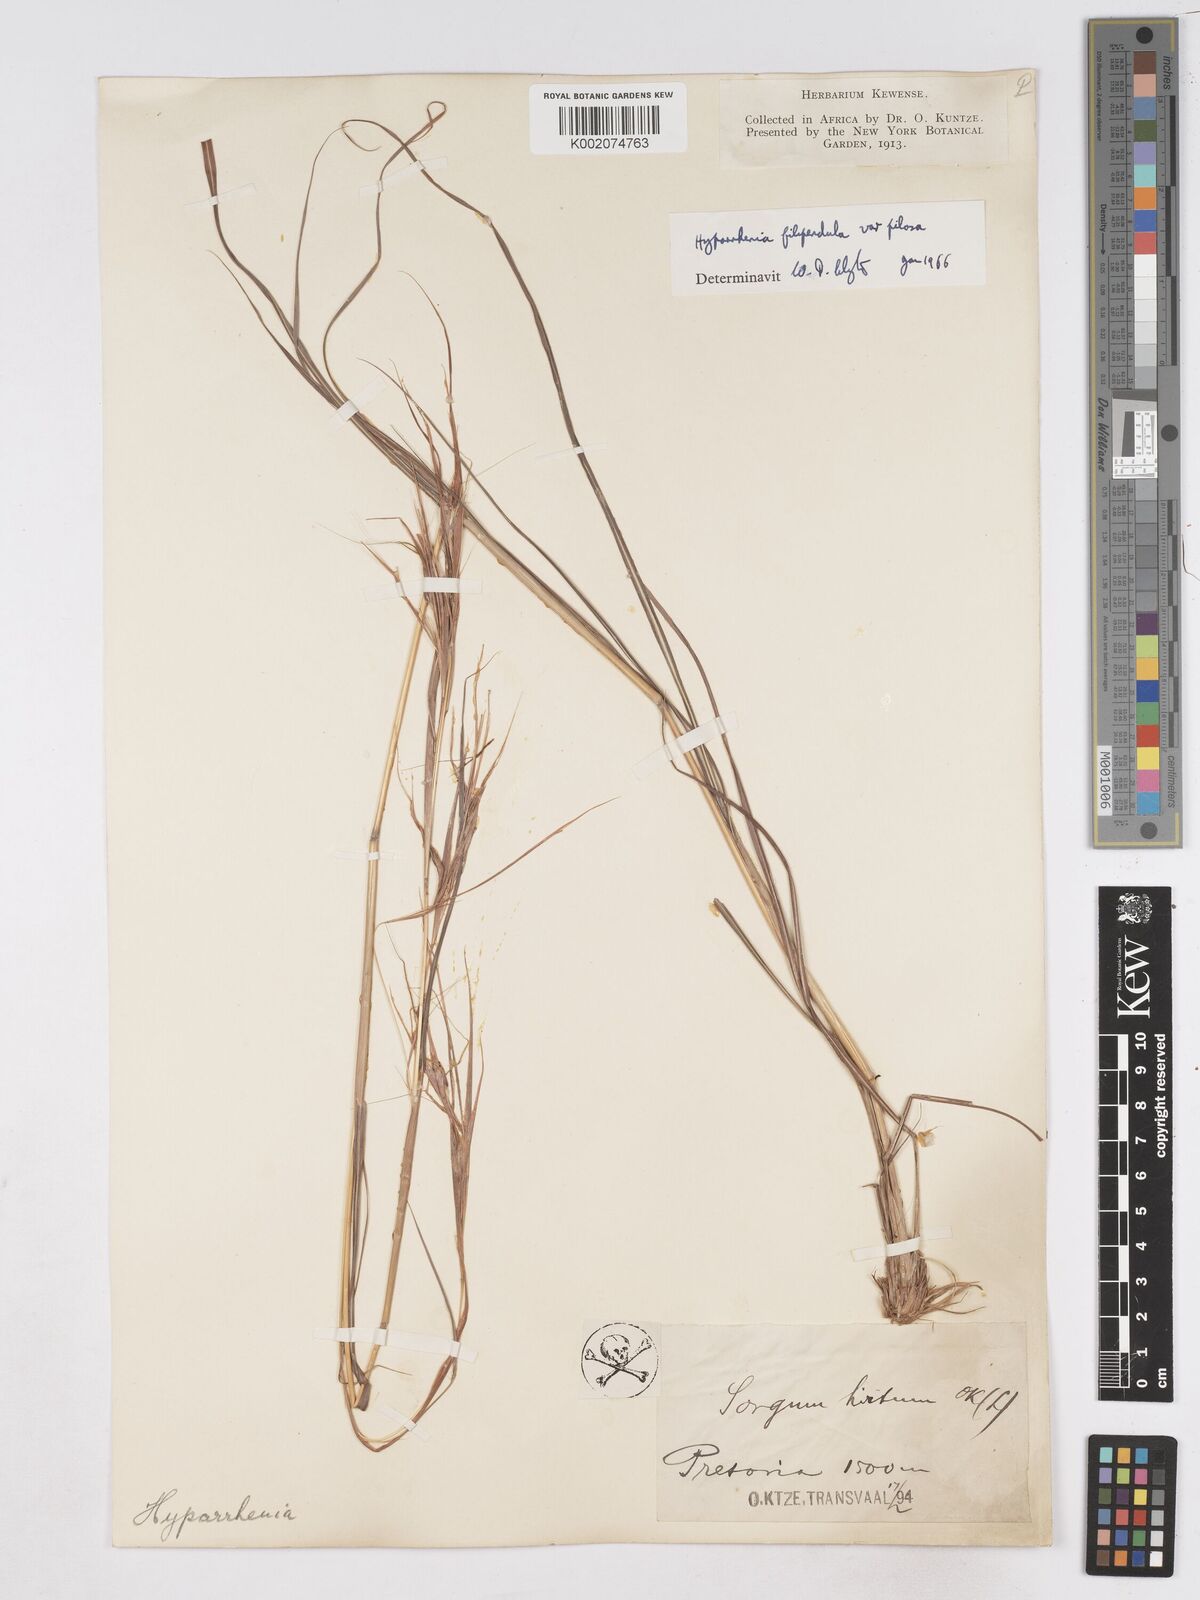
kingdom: Plantae
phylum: Tracheophyta
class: Liliopsida
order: Poales
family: Poaceae
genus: Hyparrhenia
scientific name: Hyparrhenia filipendula
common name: Tambookie grass
